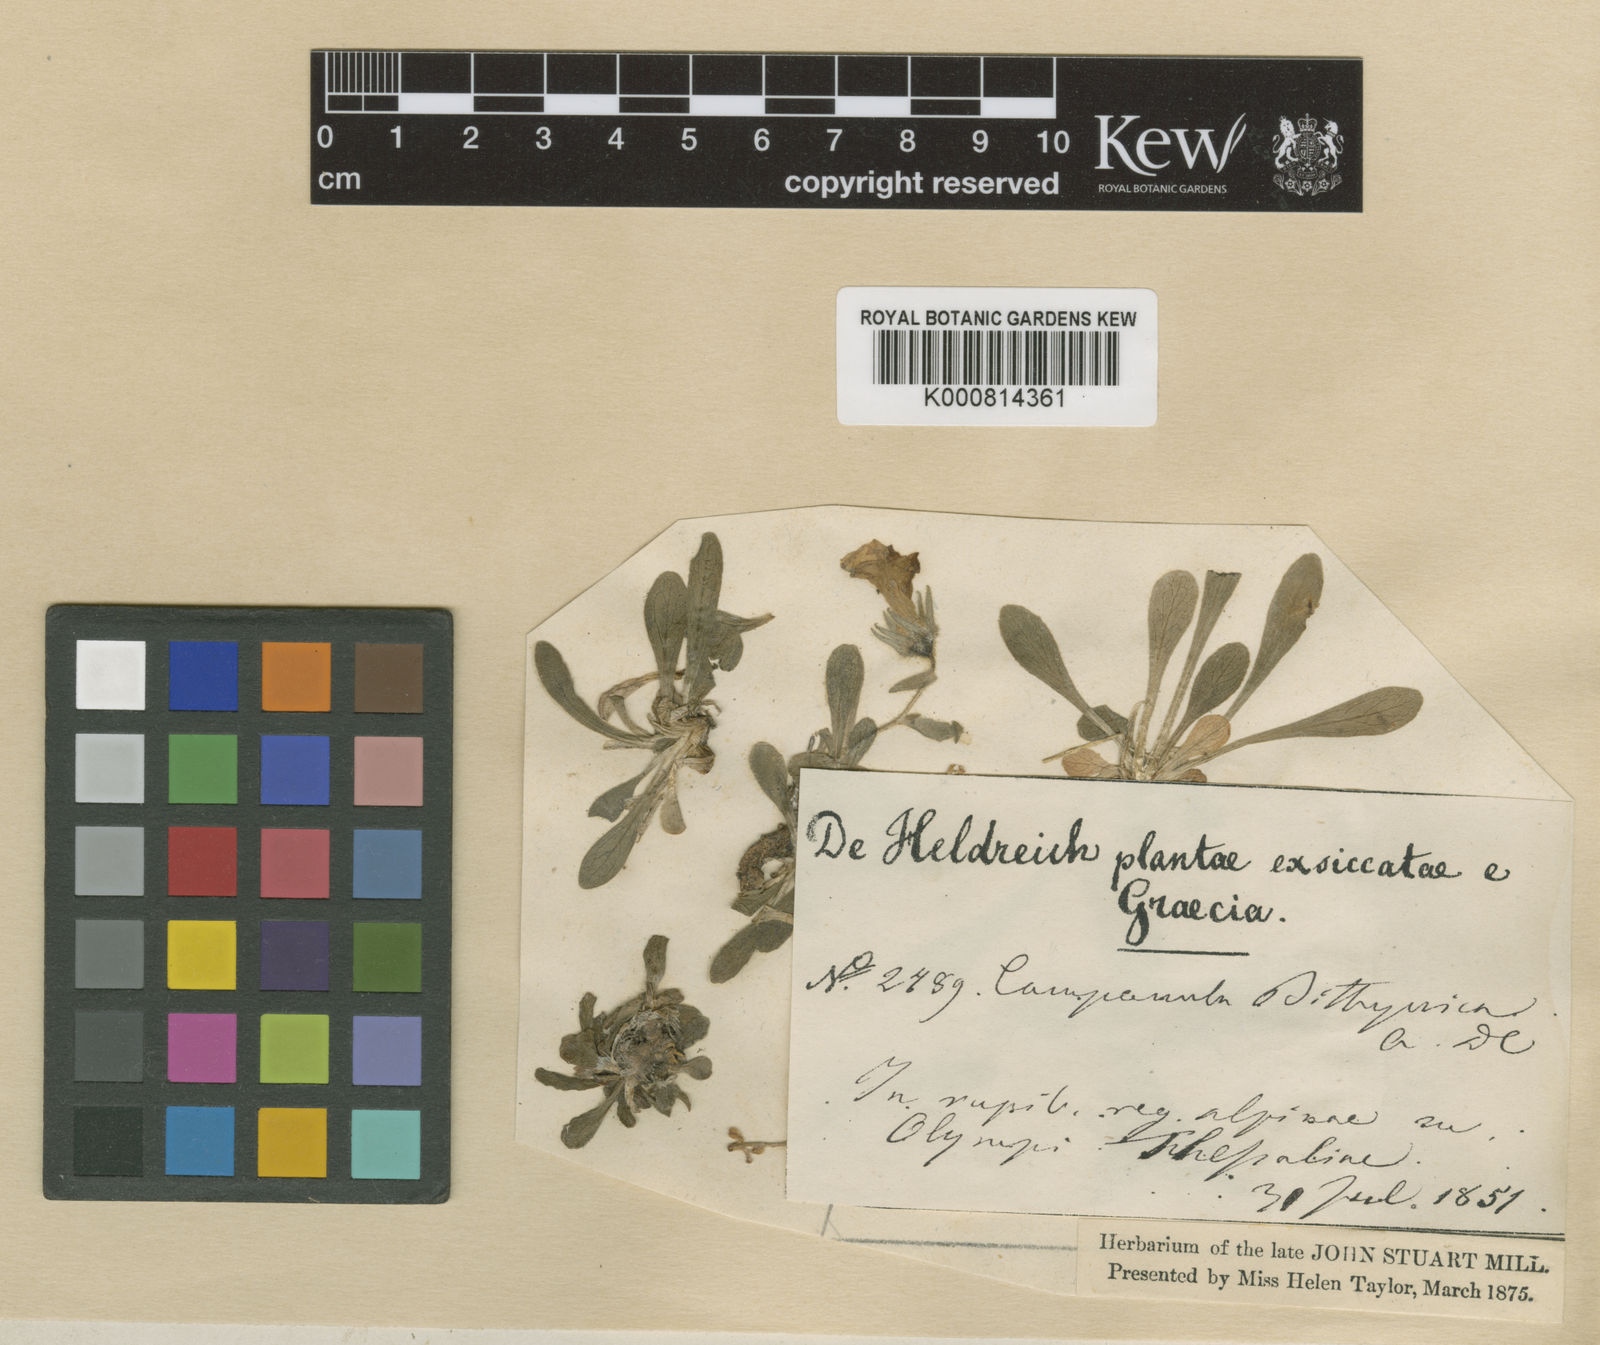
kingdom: Plantae
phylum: Tracheophyta
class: Magnoliopsida
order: Asterales
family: Campanulaceae
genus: Campanula
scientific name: Campanula oreadum
